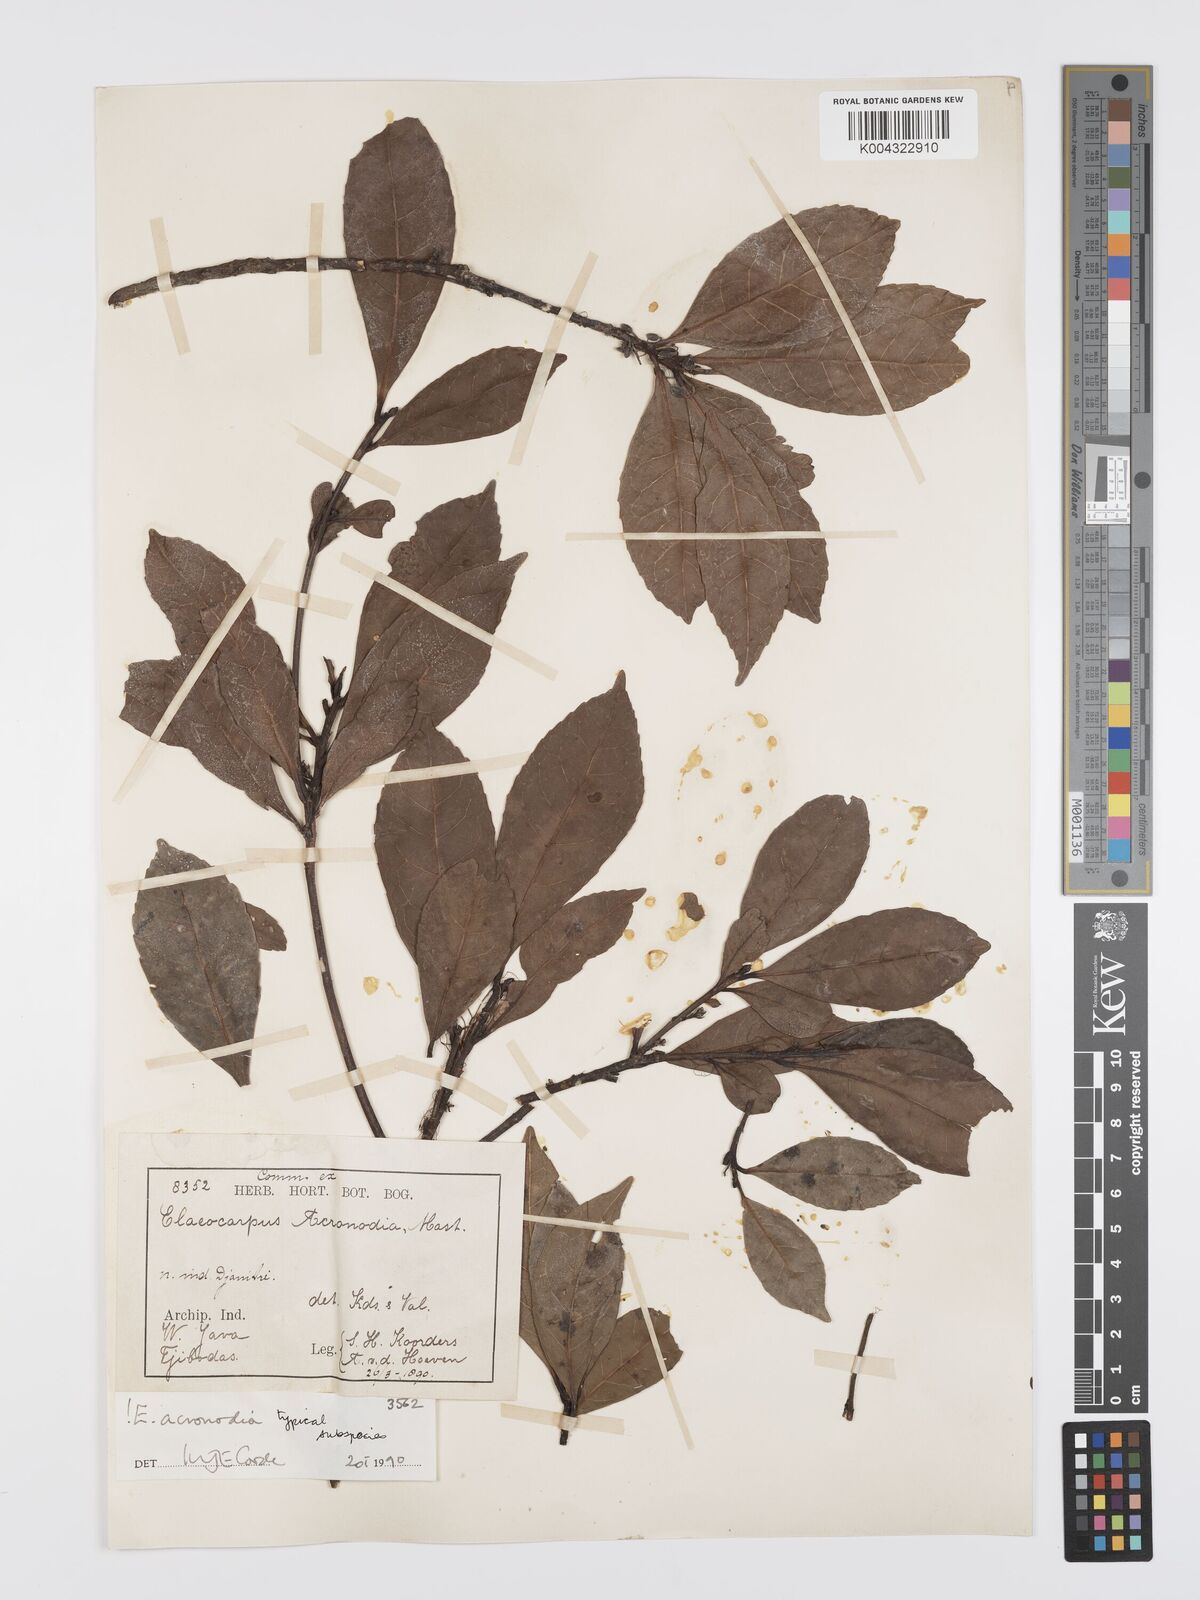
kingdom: Plantae
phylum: Tracheophyta
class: Magnoliopsida
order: Oxalidales
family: Elaeocarpaceae
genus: Elaeocarpus
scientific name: Elaeocarpus acronodia
